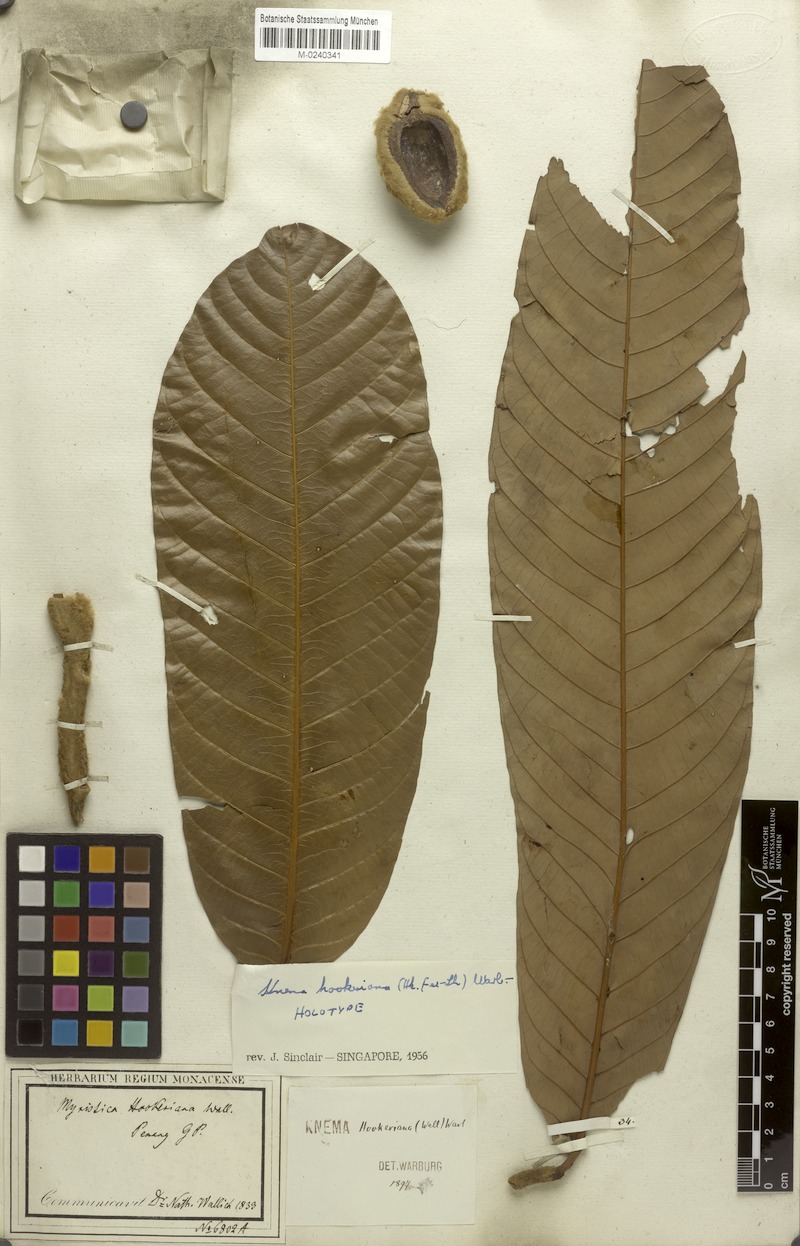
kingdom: Plantae
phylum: Tracheophyta
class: Magnoliopsida
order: Magnoliales
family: Myristicaceae
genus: Knema
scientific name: Knema hookeriana
